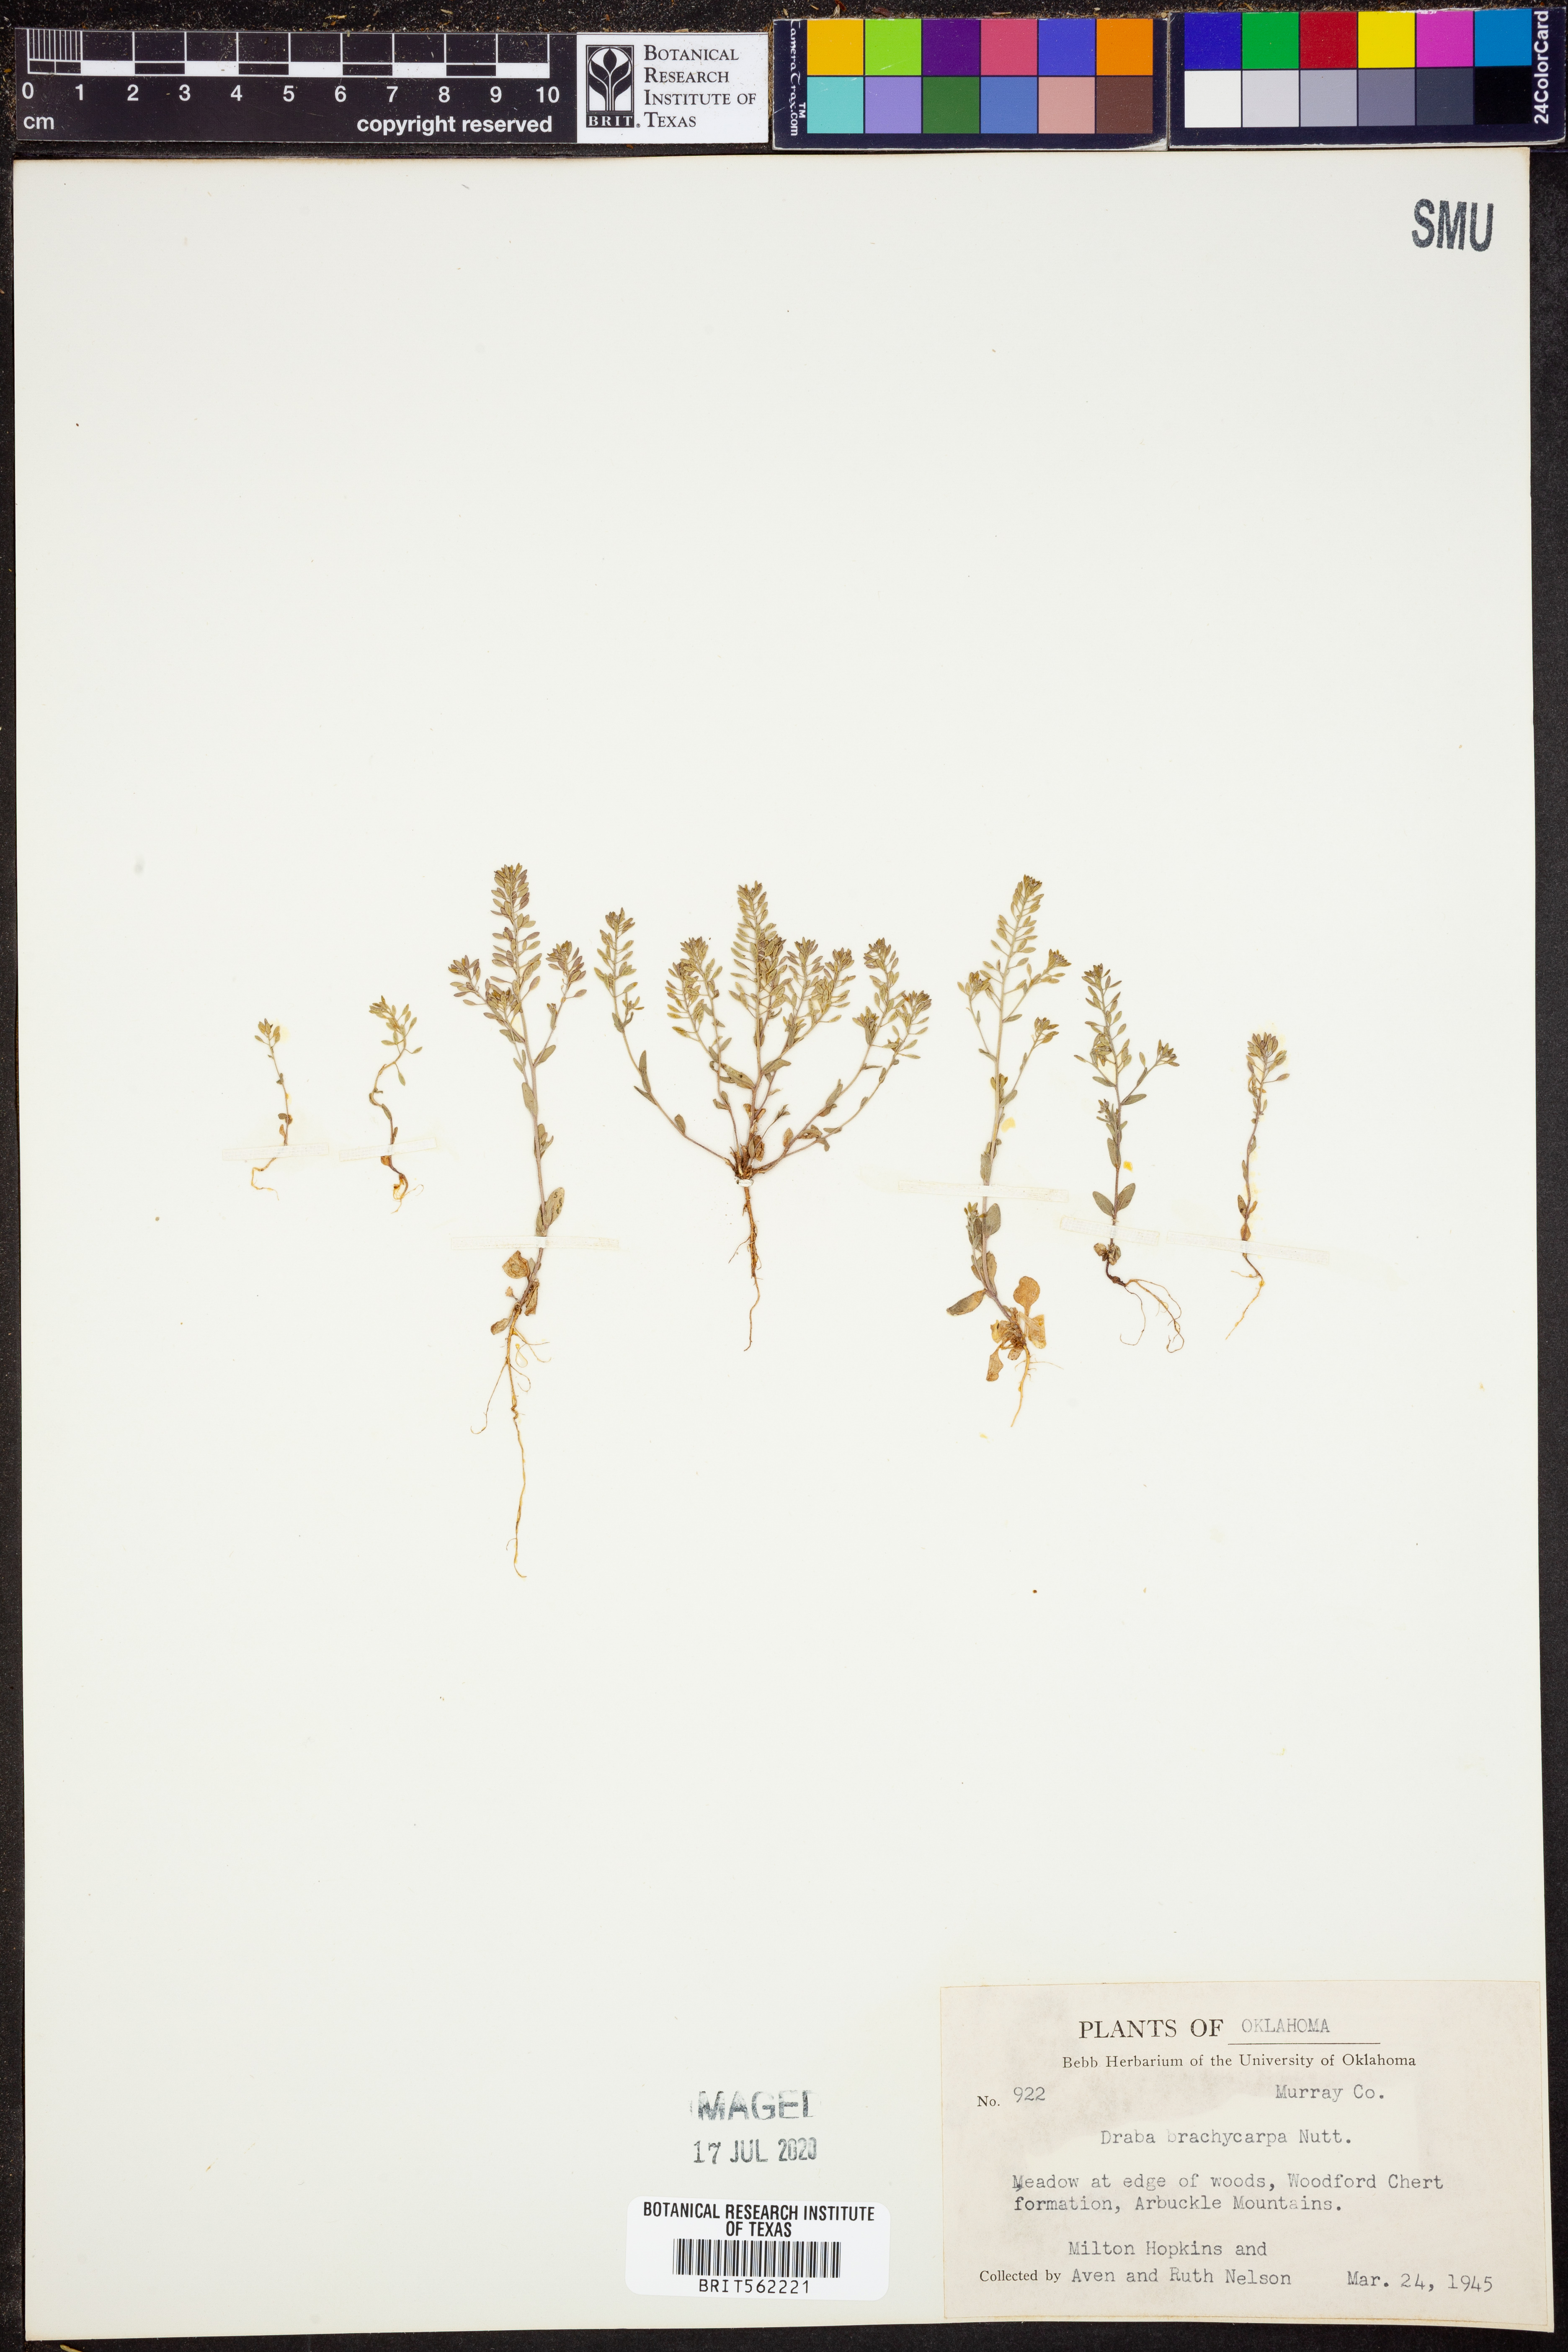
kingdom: Plantae
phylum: Tracheophyta
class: Magnoliopsida
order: Brassicales
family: Brassicaceae
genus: Abdra
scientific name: Abdra brachycarpa
